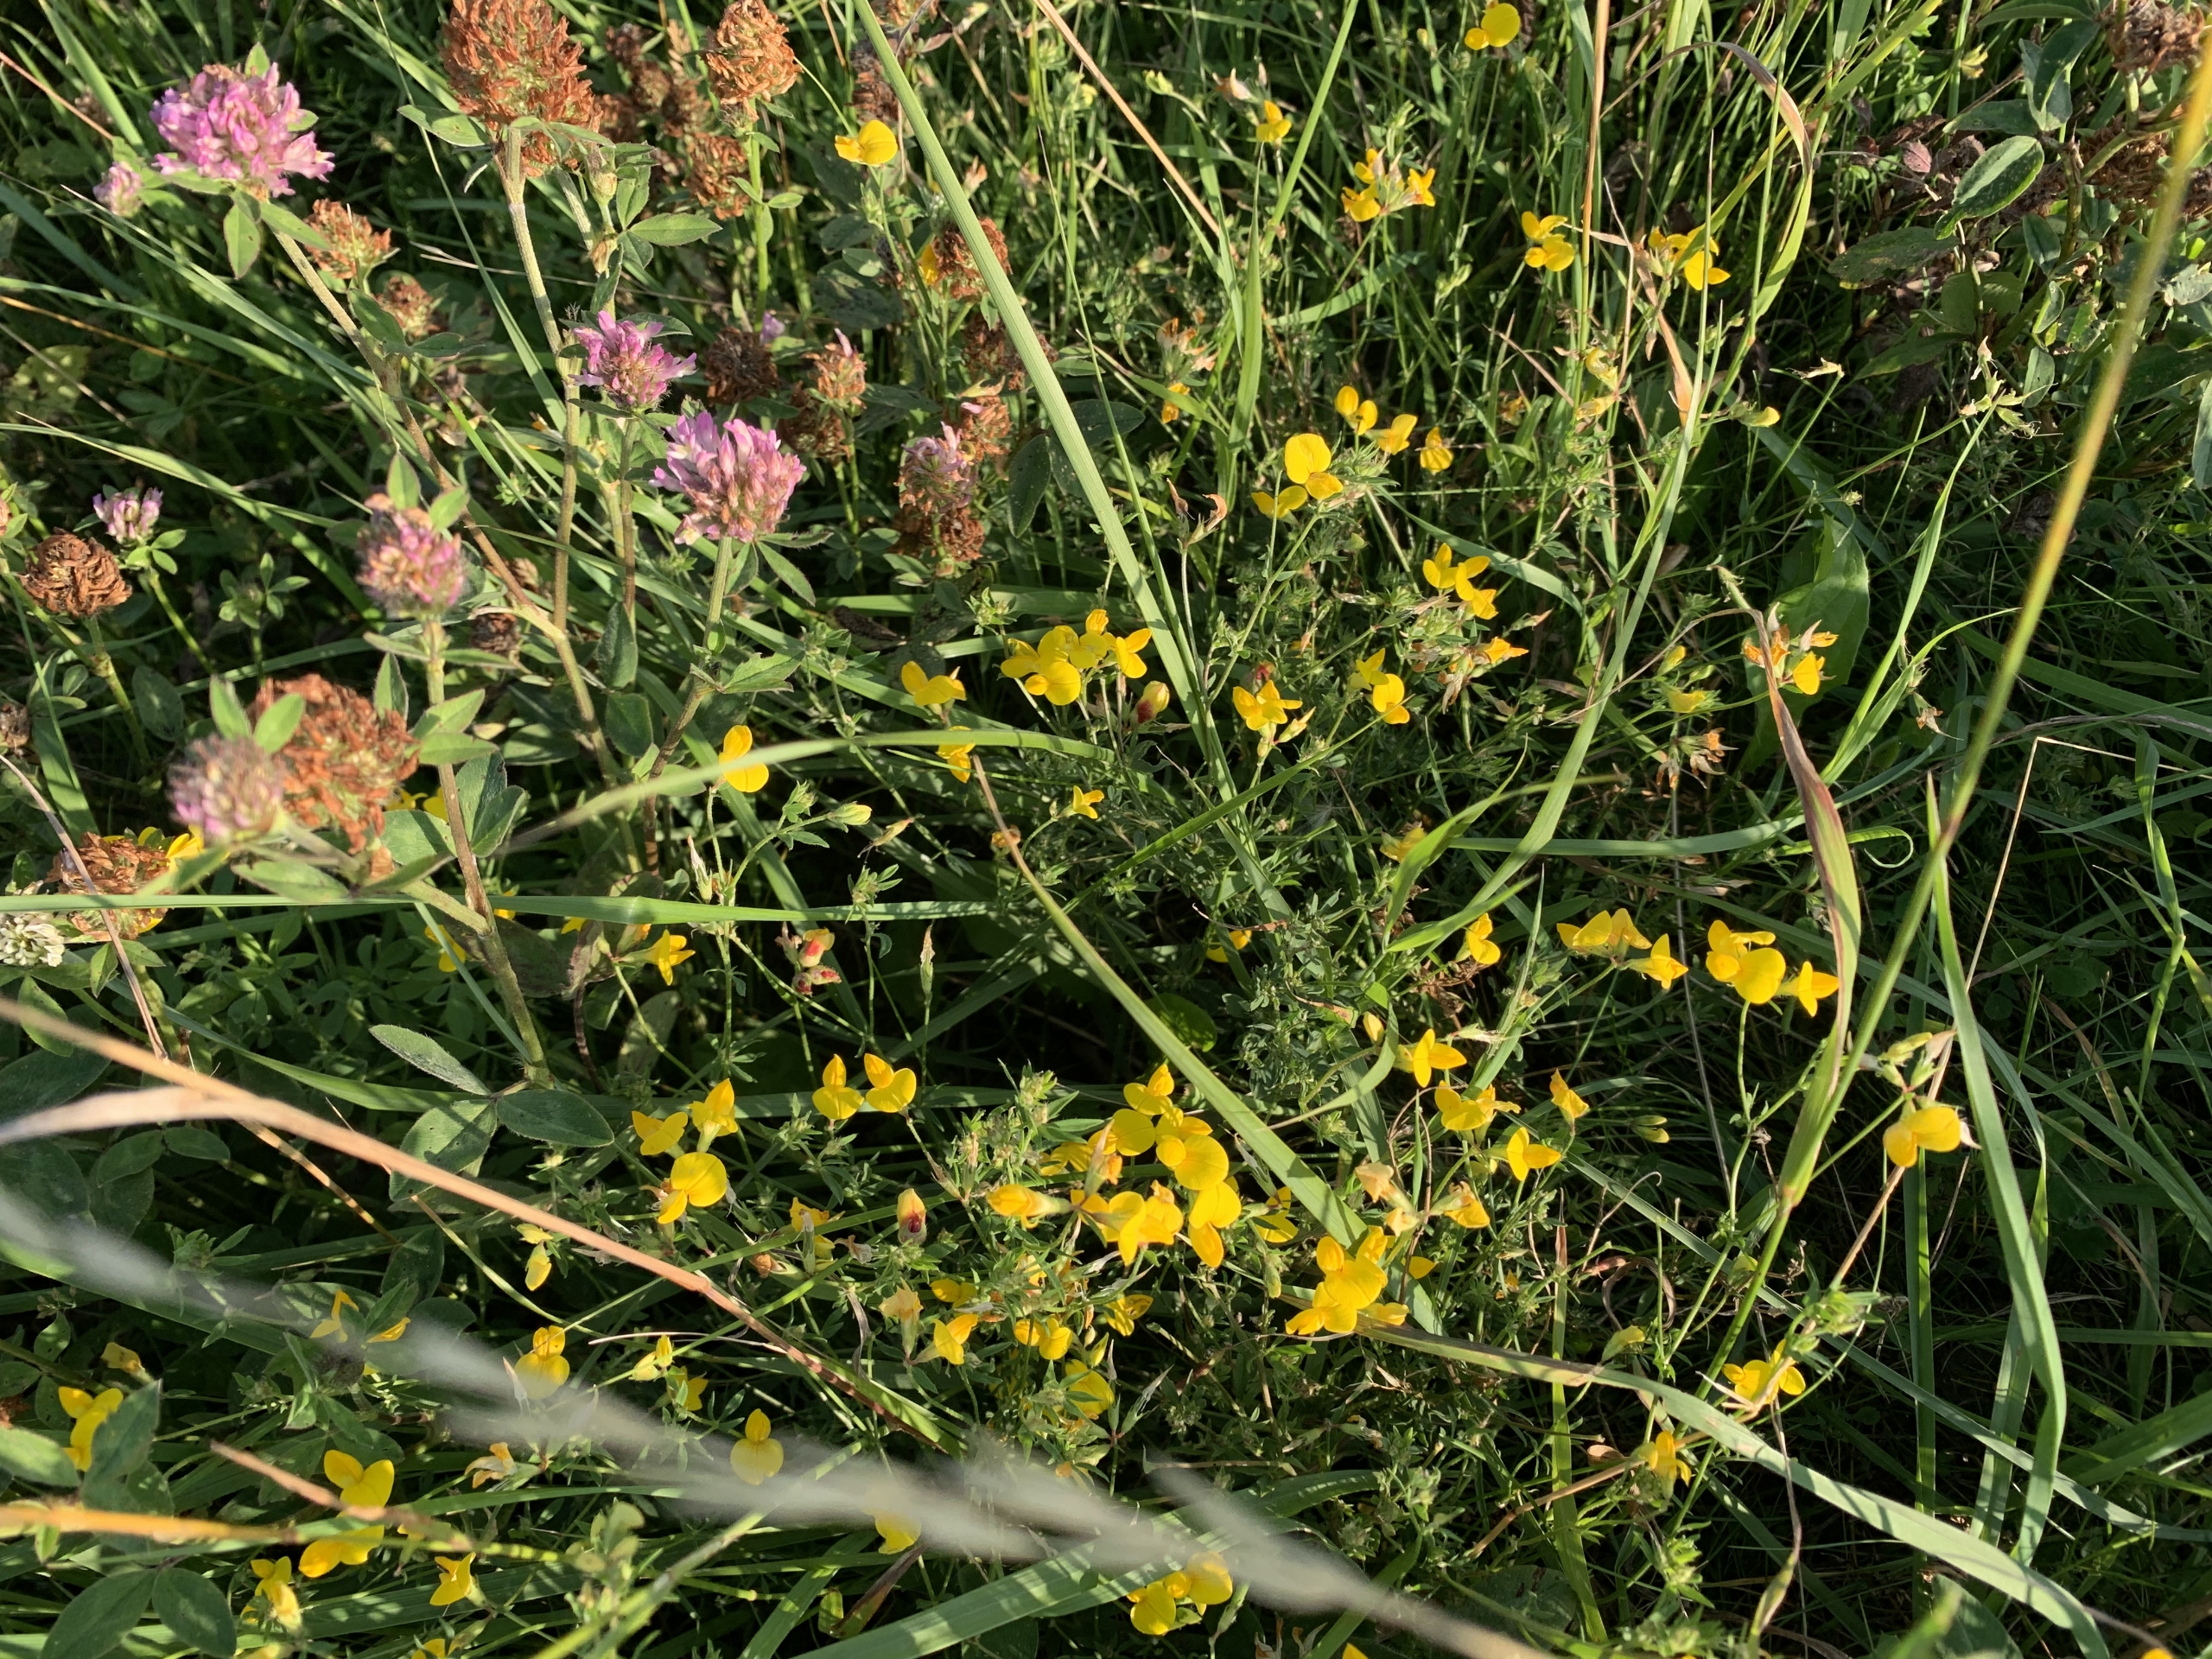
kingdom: Plantae
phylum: Tracheophyta
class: Magnoliopsida
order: Fabales
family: Fabaceae
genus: Lotus
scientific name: Lotus tenuis
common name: Smalbladet kællingetand
